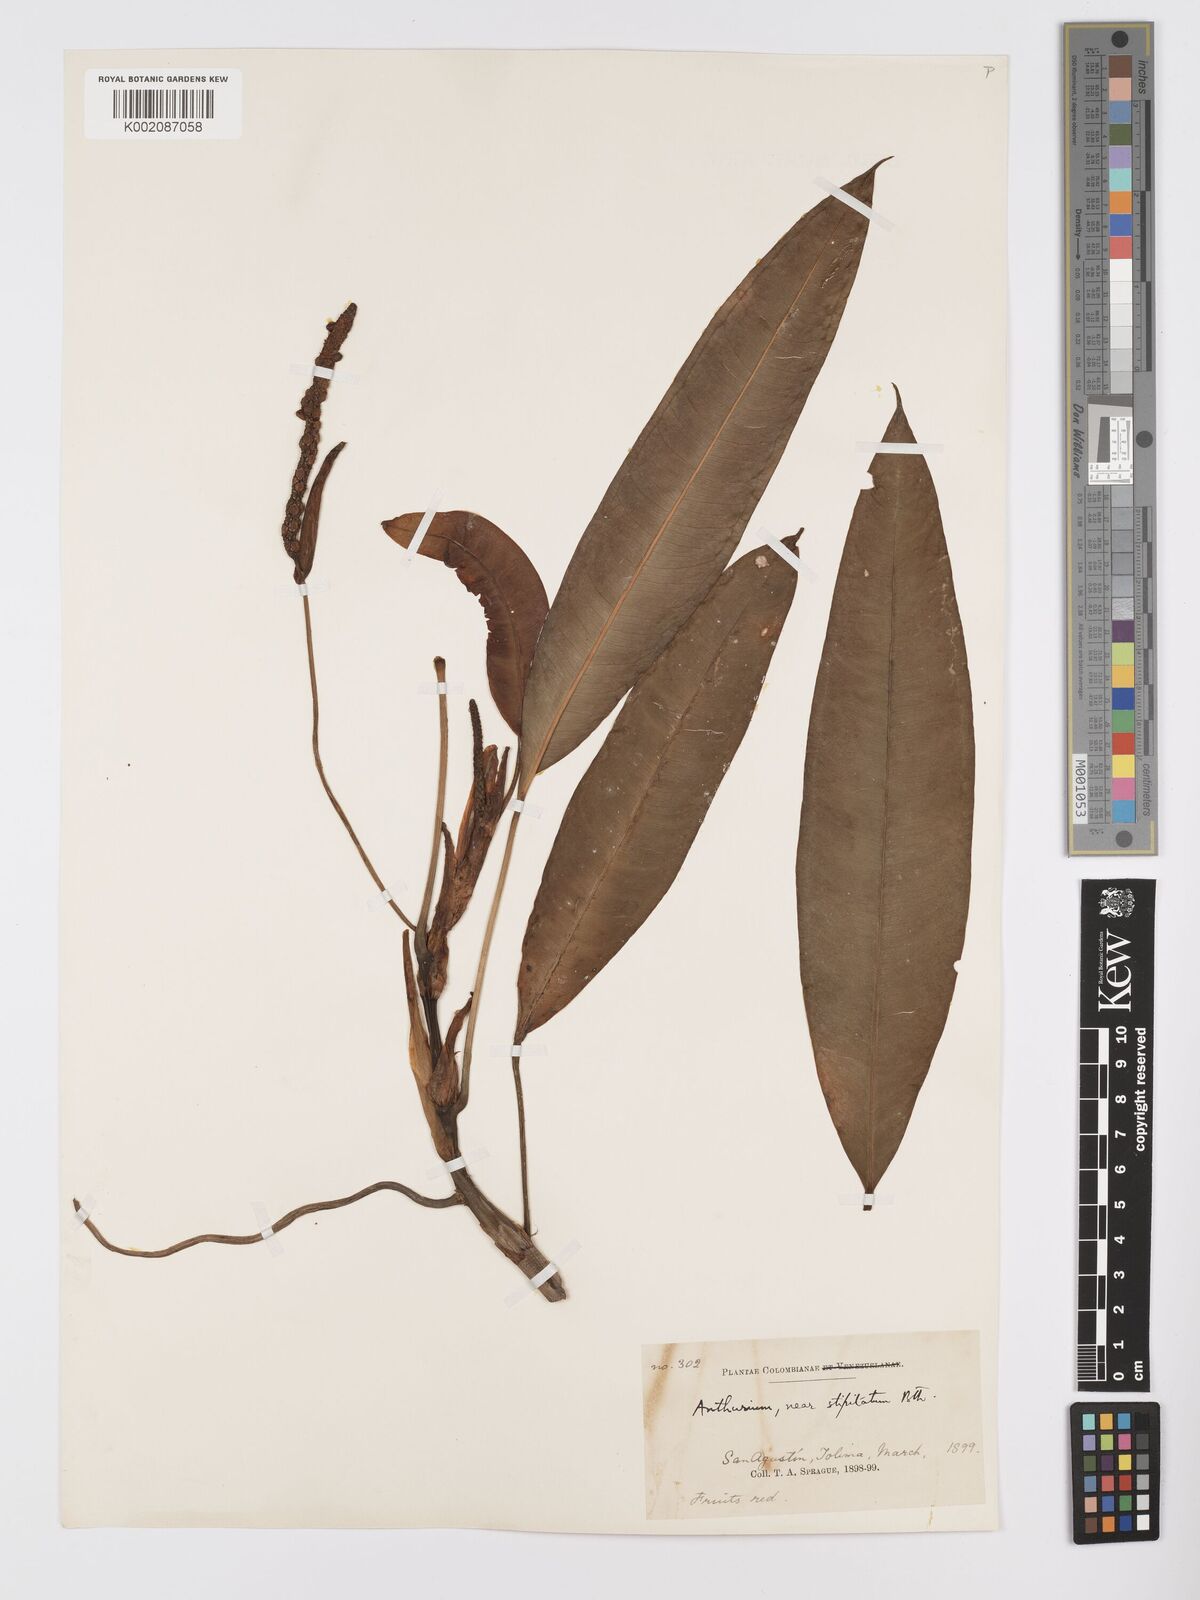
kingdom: Plantae
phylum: Tracheophyta
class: Liliopsida
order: Alismatales
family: Araceae
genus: Anthurium
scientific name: Anthurium stipitatum
